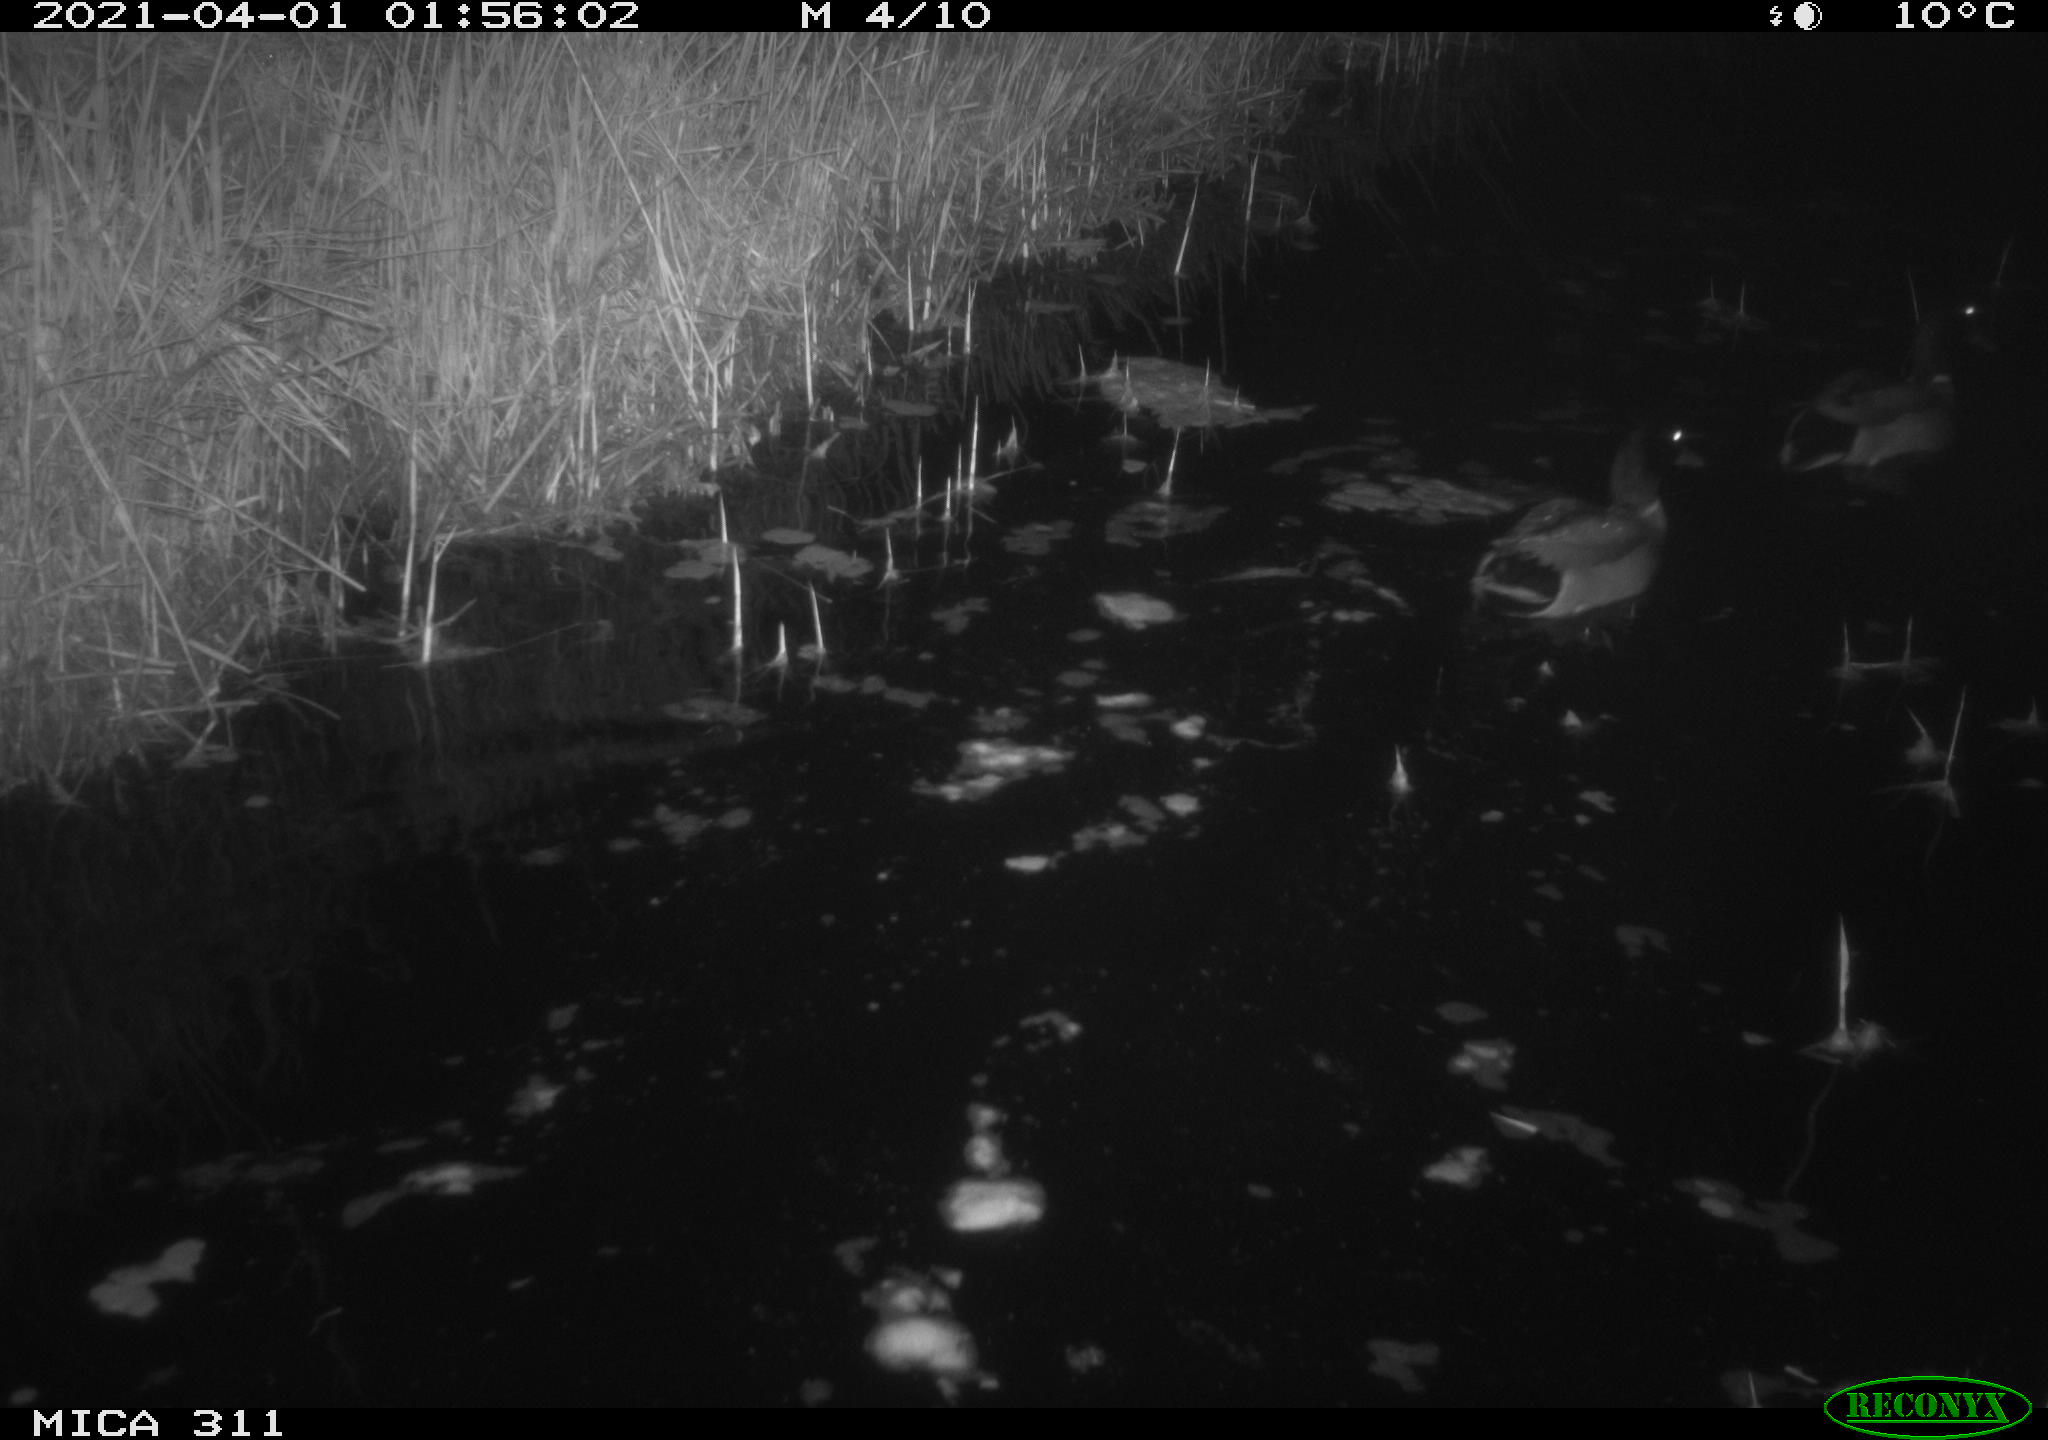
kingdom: Animalia
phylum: Chordata
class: Aves
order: Anseriformes
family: Anatidae
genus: Anas
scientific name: Anas platyrhynchos
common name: Mallard
